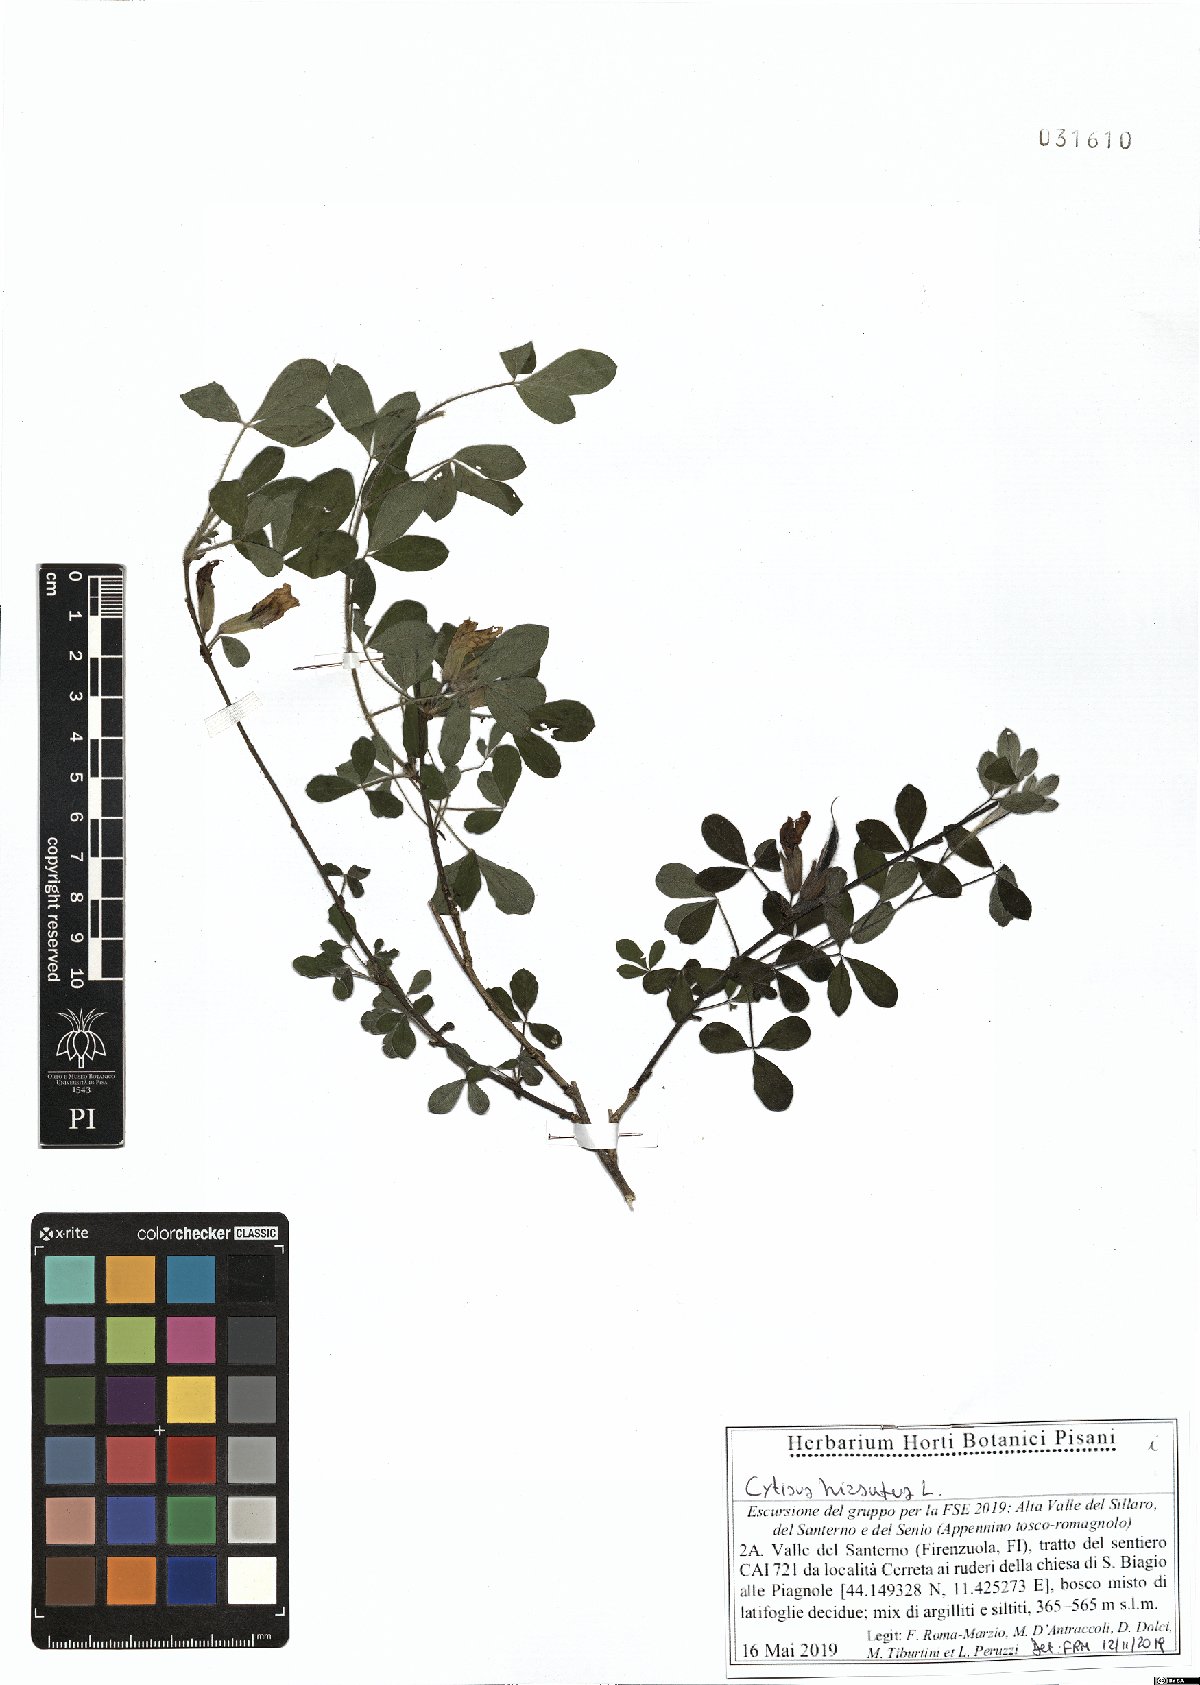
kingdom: Plantae
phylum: Tracheophyta
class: Magnoliopsida
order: Fabales
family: Fabaceae
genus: Chamaecytisus
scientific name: Chamaecytisus hirsutus
